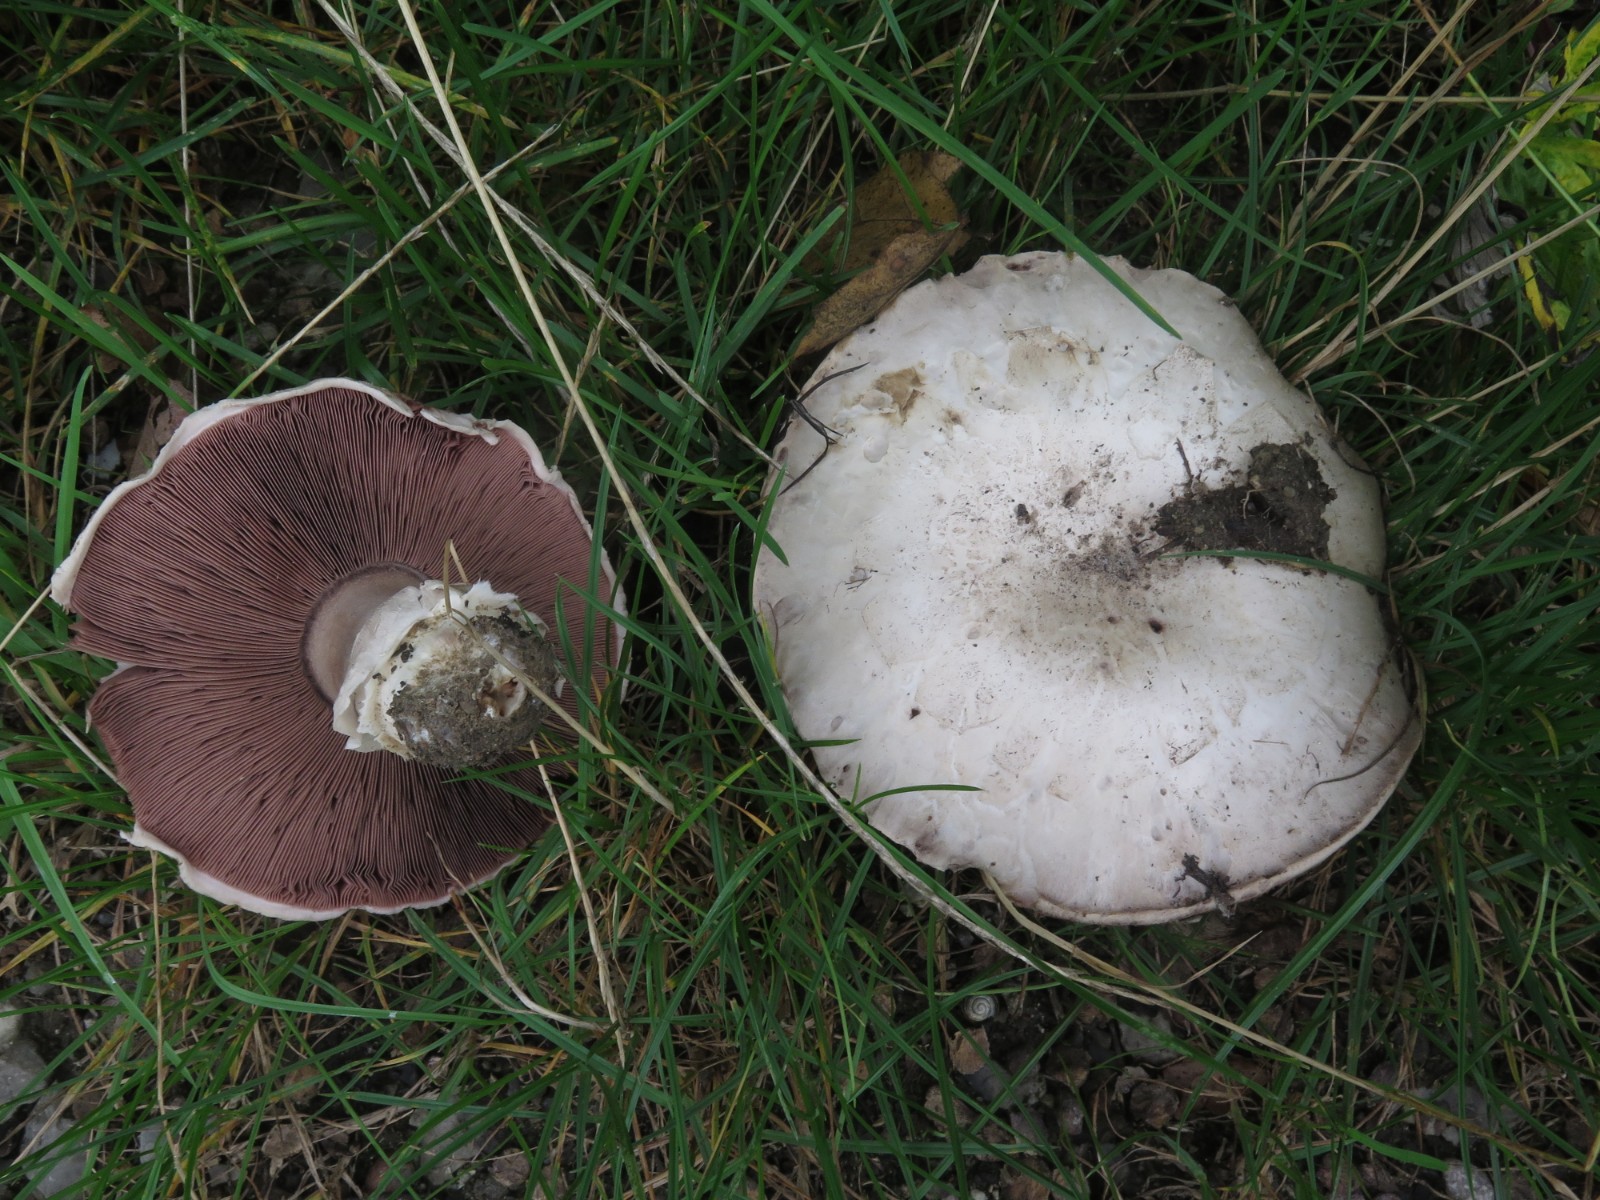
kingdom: Fungi
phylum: Basidiomycota
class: Agaricomycetes
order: Agaricales
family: Agaricaceae
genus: Agaricus
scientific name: Agaricus bitorquis
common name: vej-champignon
